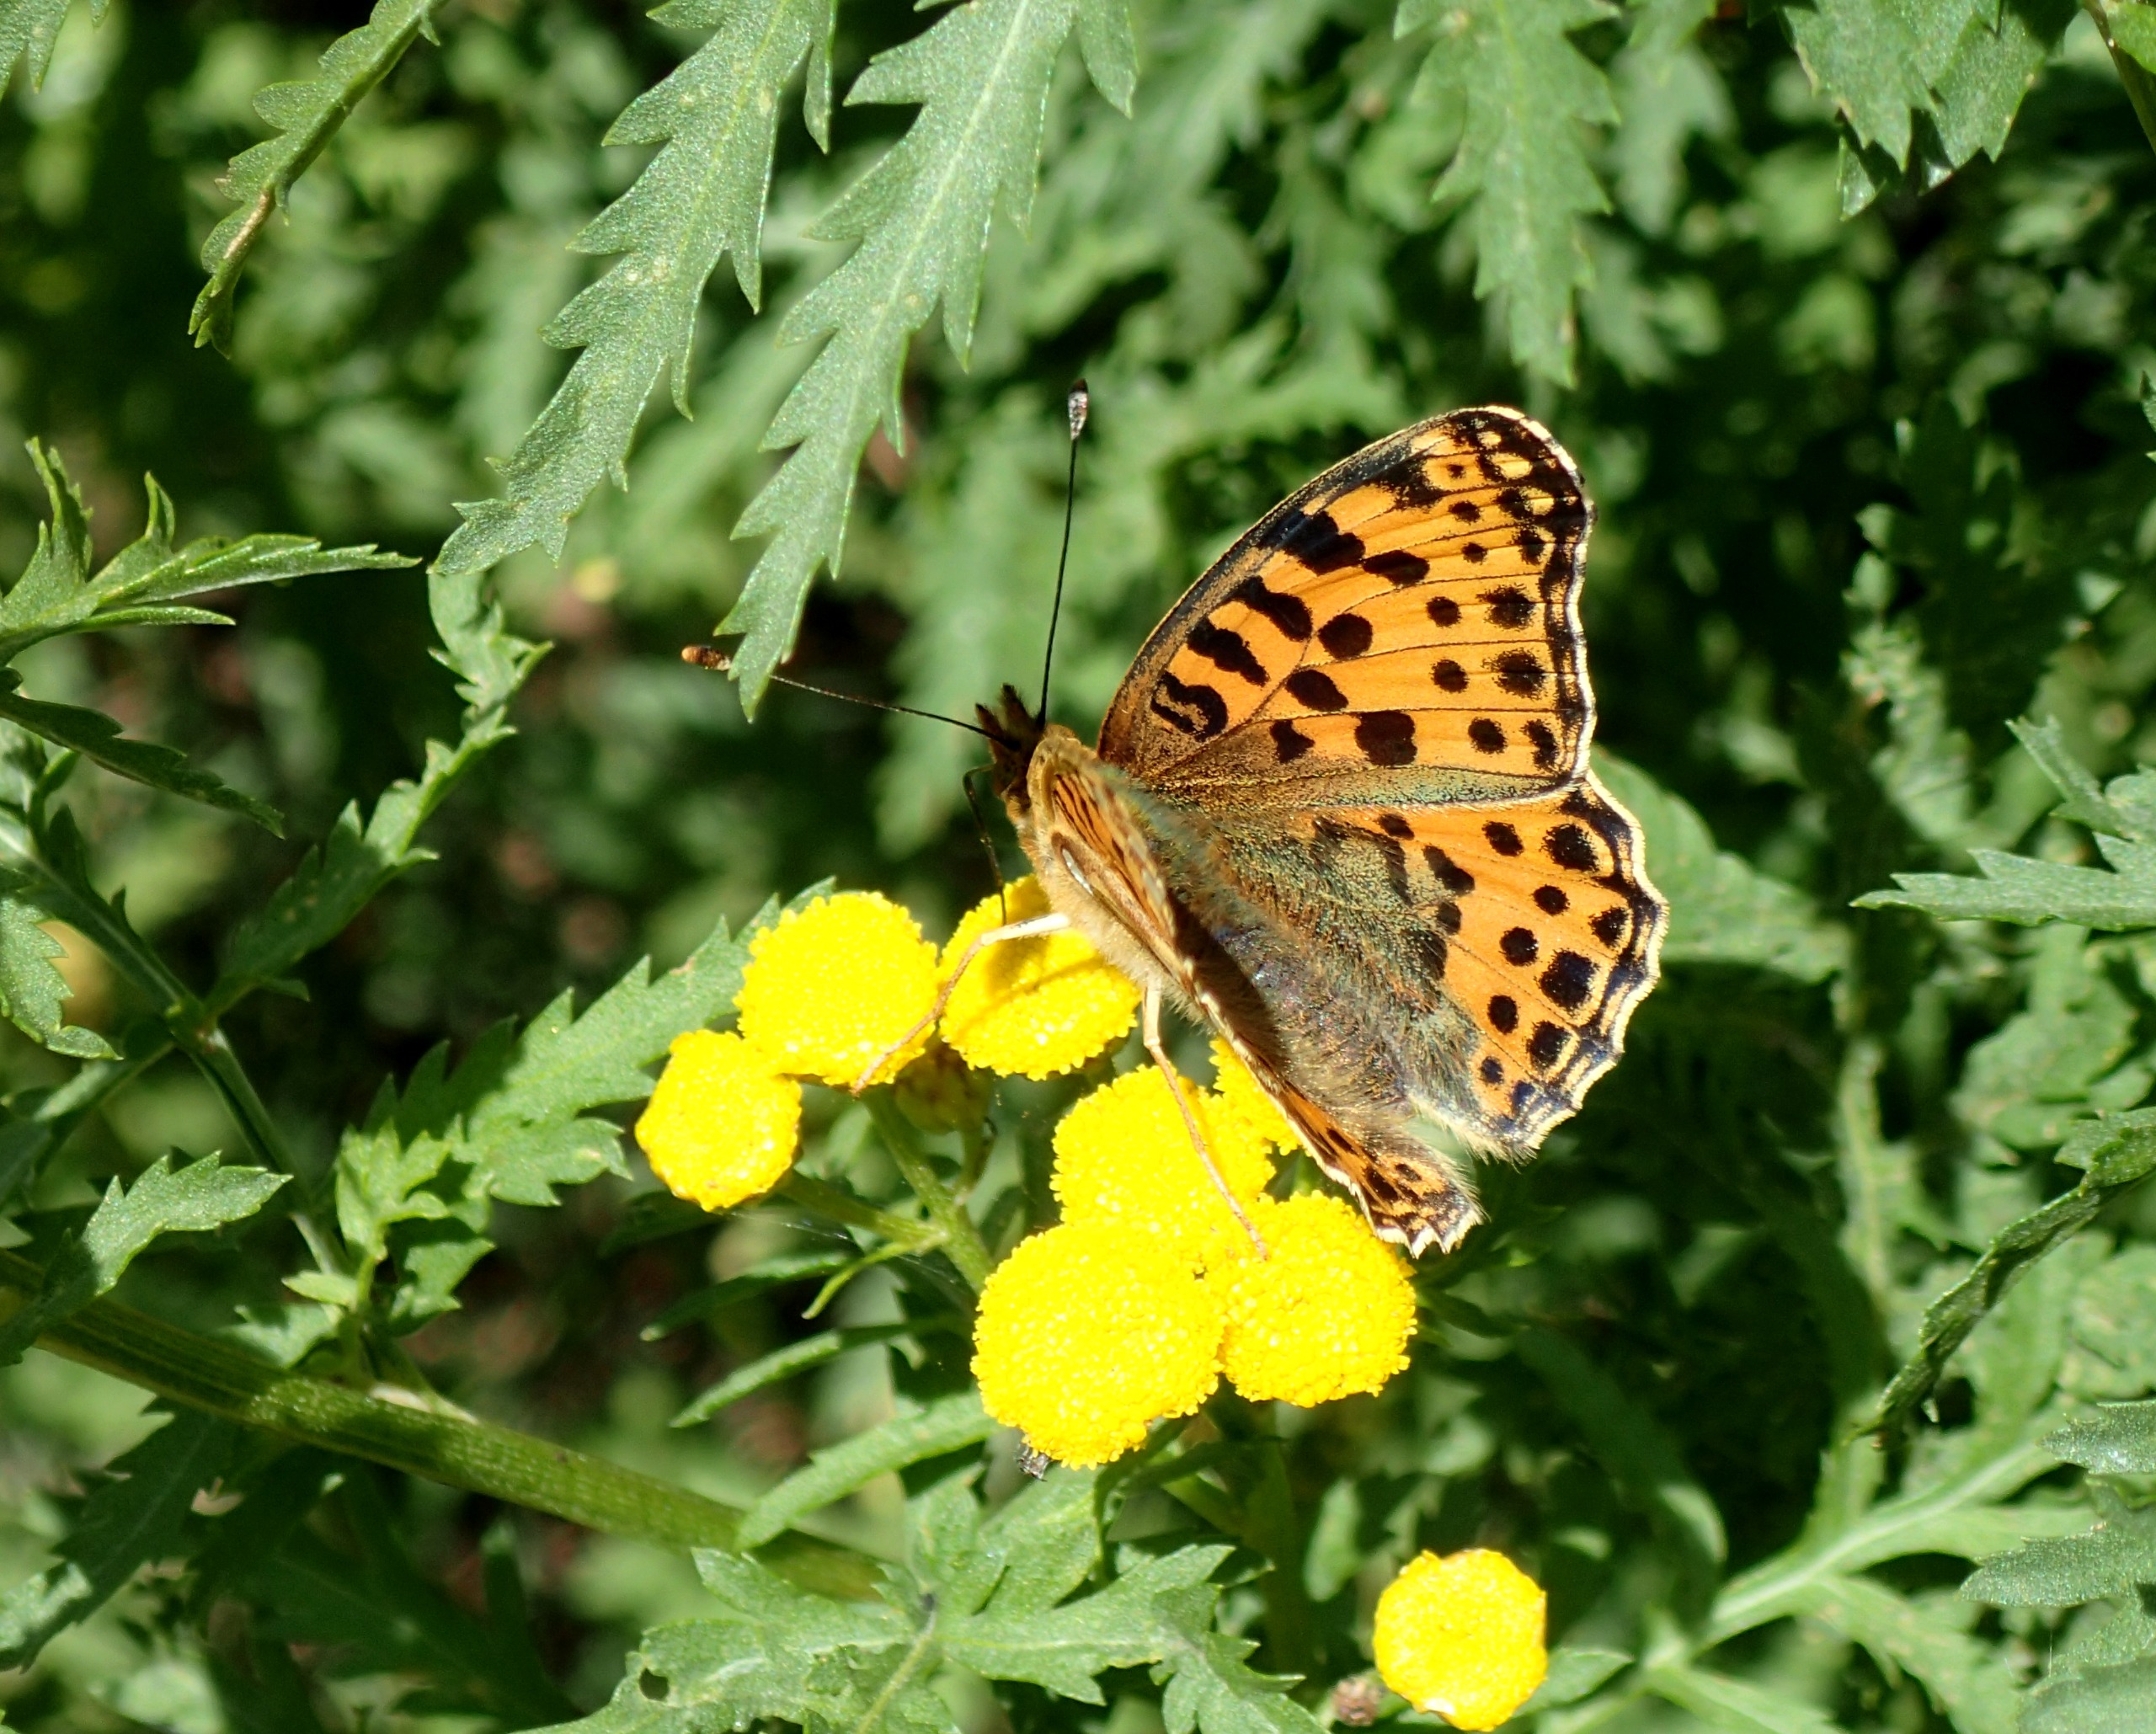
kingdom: Animalia
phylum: Arthropoda
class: Insecta
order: Lepidoptera
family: Nymphalidae
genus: Issoria
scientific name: Issoria lathonia
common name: Storplettet perlemorsommerfugl
